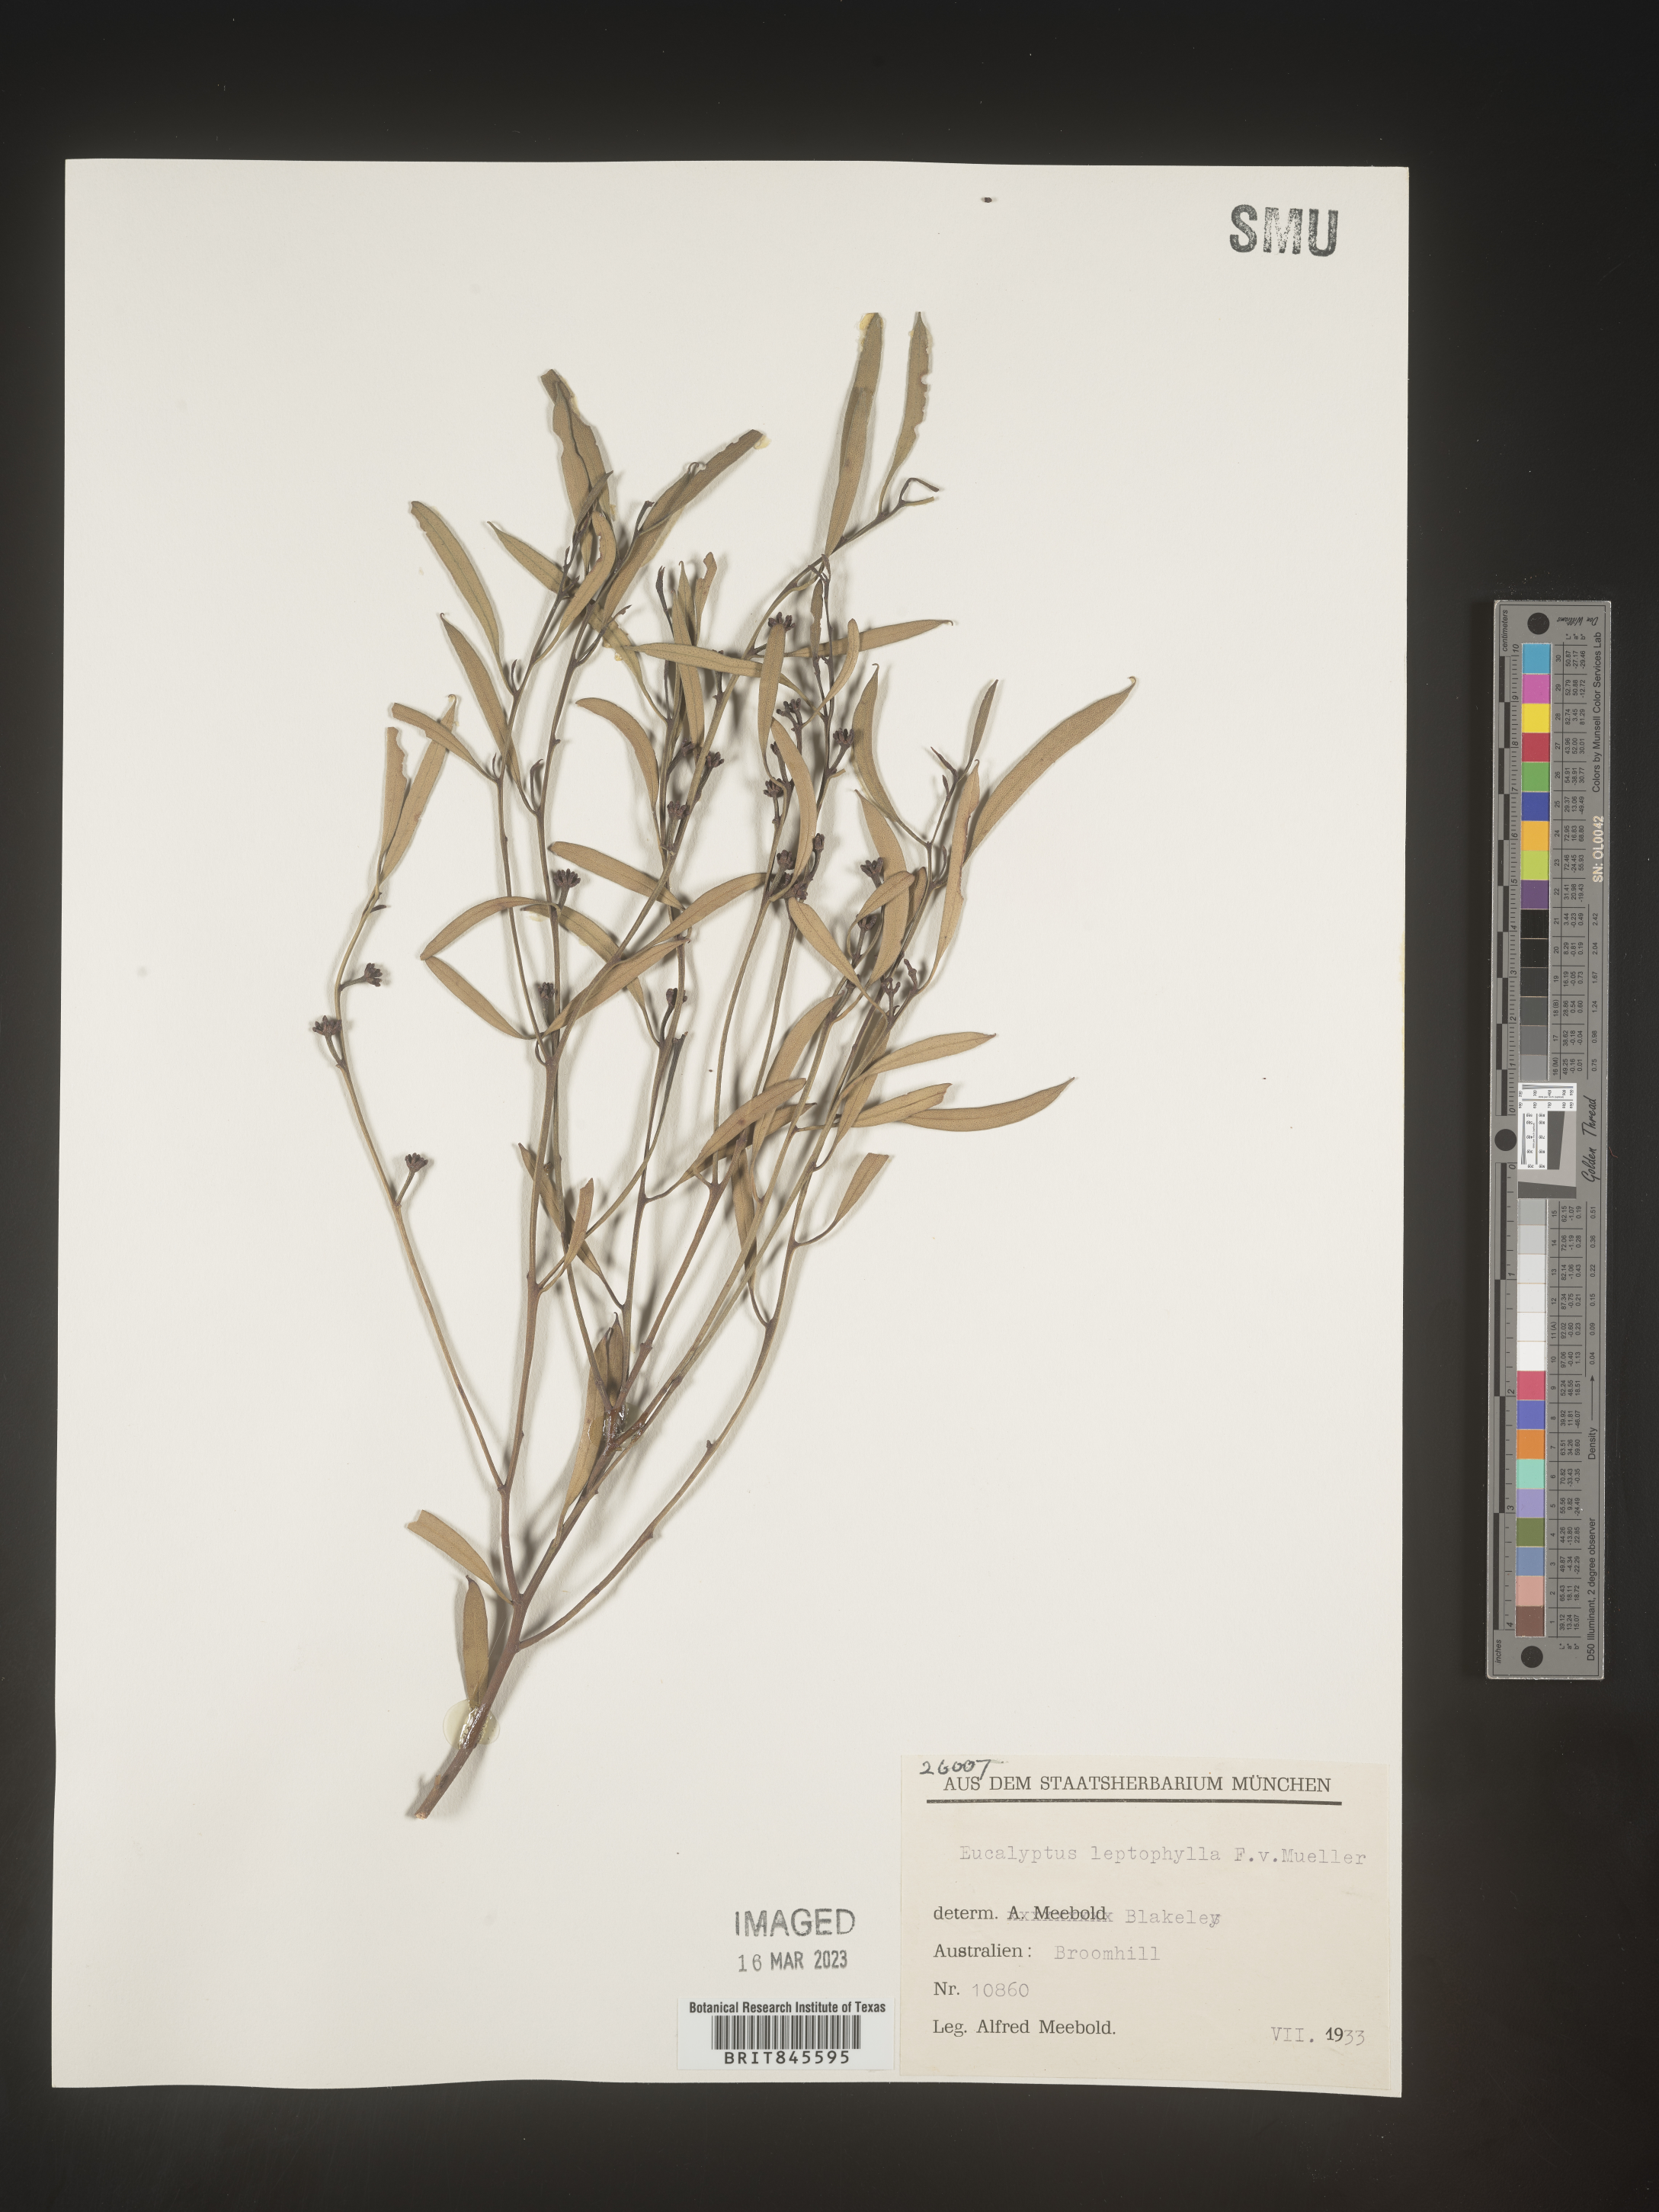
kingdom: Plantae
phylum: Tracheophyta
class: Magnoliopsida
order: Myrtales
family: Myrtaceae
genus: Eucalyptus
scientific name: Eucalyptus
